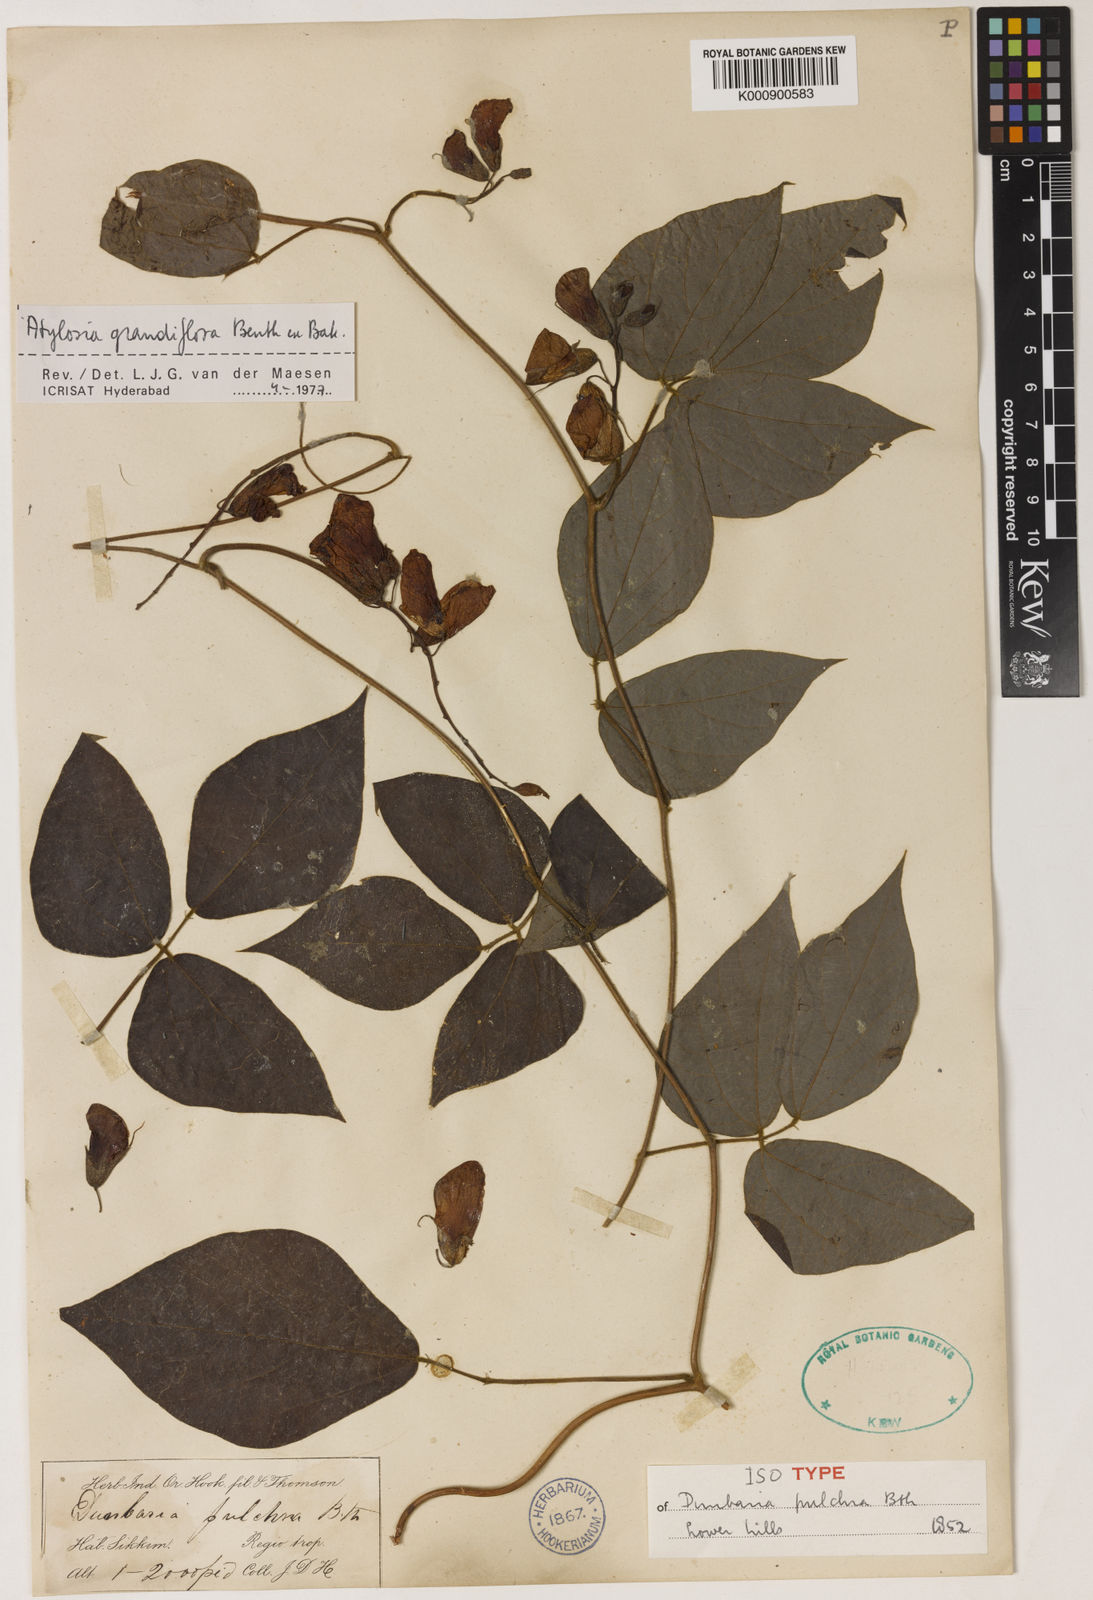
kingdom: Plantae
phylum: Tracheophyta
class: Magnoliopsida
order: Fabales
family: Fabaceae
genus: Cajanus
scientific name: Cajanus grandiflorus
